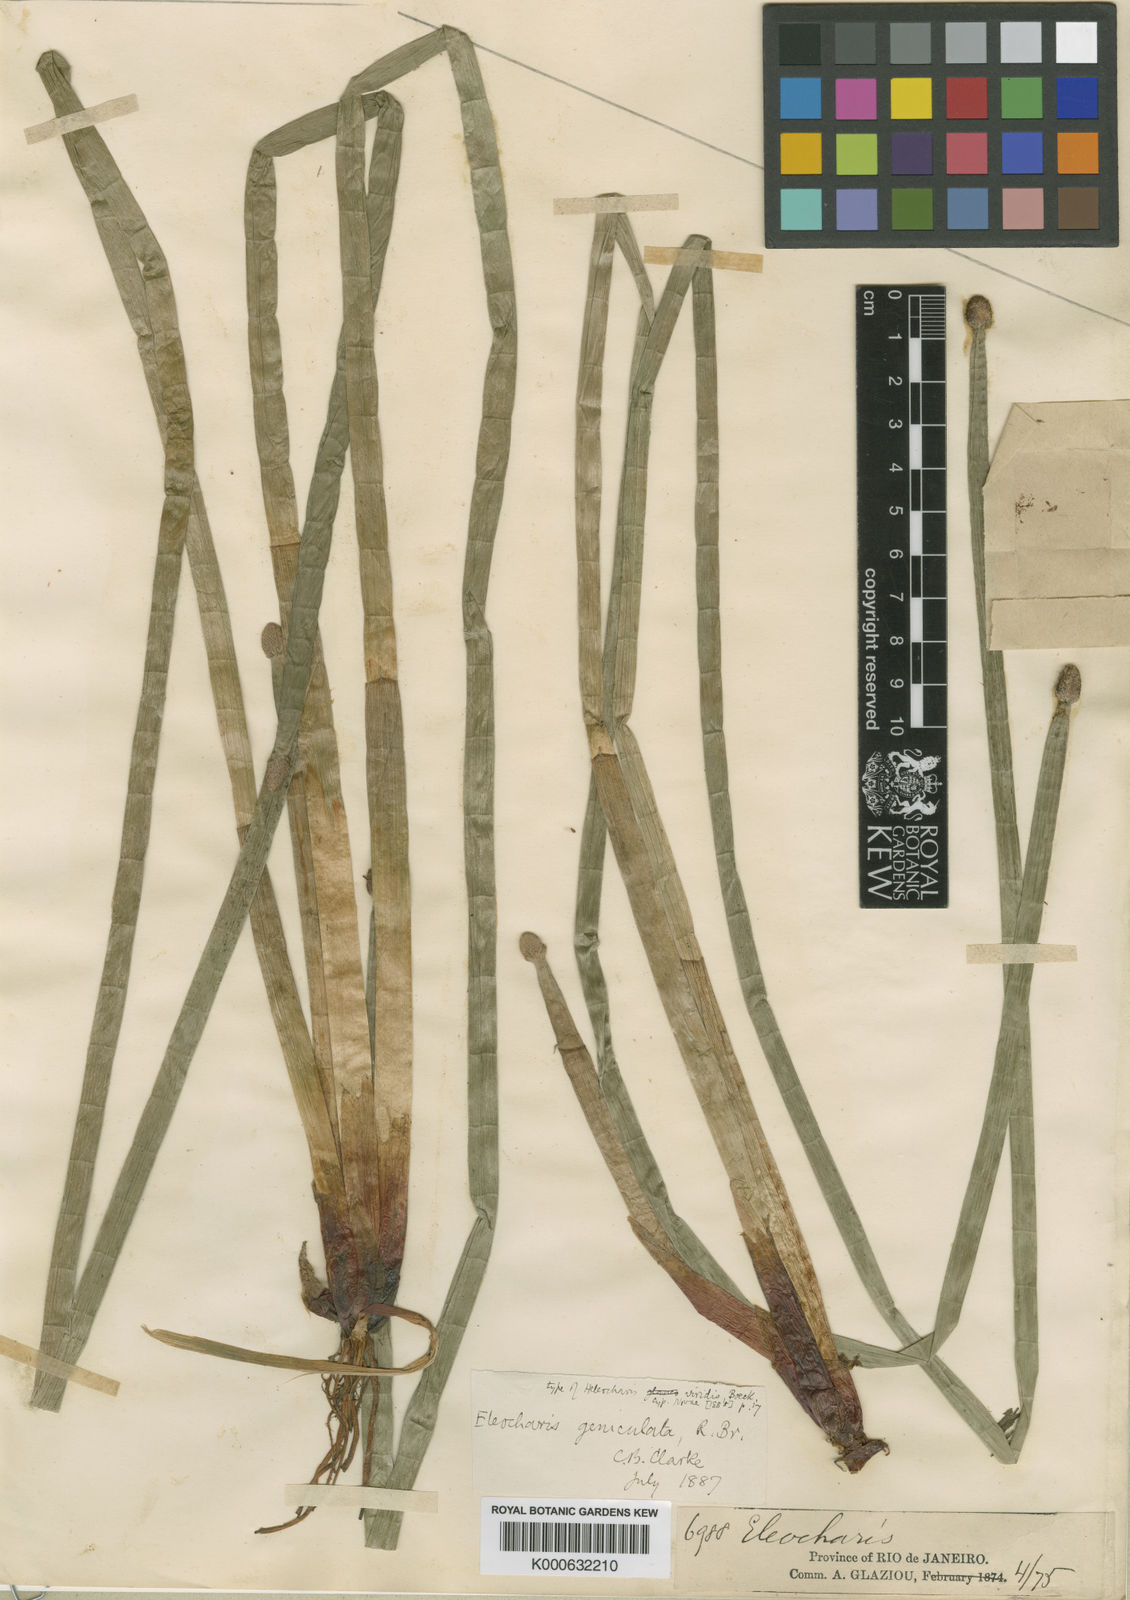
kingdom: Plantae
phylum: Tracheophyta
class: Liliopsida
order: Poales
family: Cyperaceae
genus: Eleocharis
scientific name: Eleocharis elegans
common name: Elegant spike-rush
